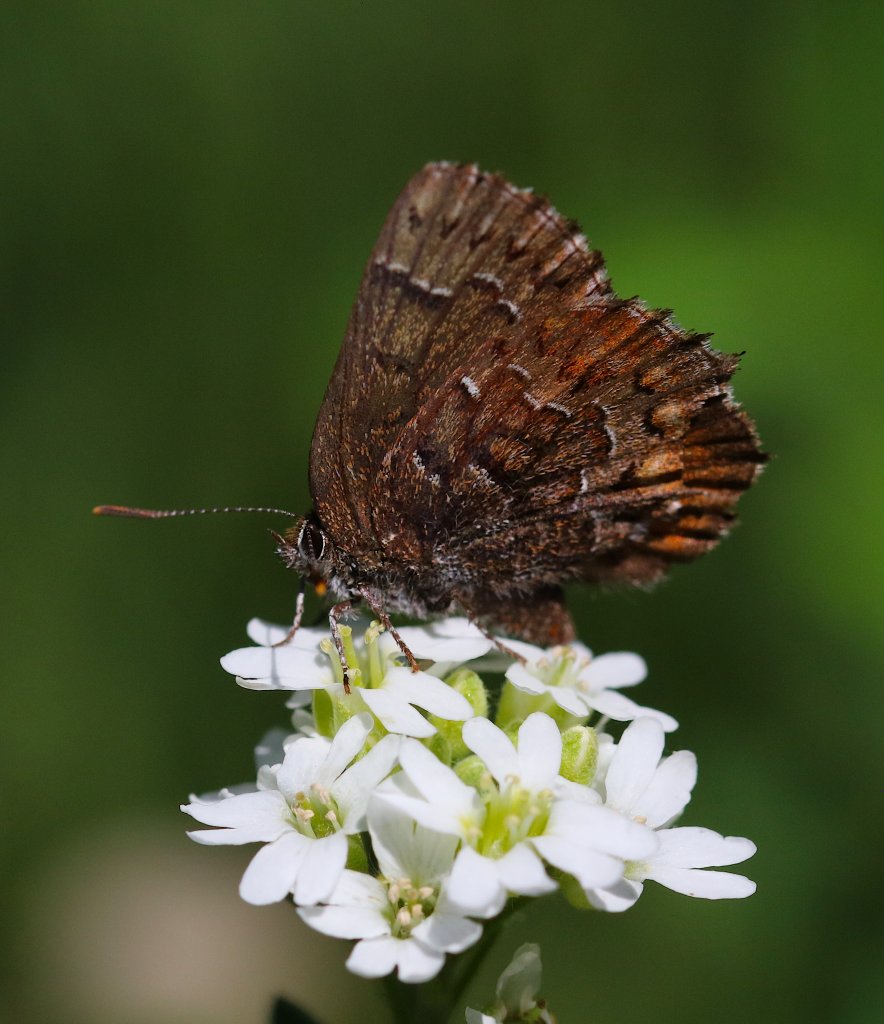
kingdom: Animalia
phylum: Arthropoda
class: Insecta
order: Lepidoptera
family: Lycaenidae
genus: Incisalia
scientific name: Incisalia niphon
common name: Eastern Pine Elfin
